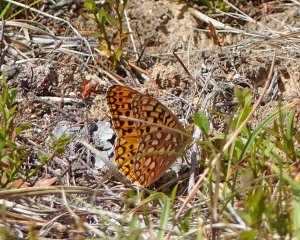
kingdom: Animalia
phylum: Arthropoda
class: Insecta
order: Lepidoptera
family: Nymphalidae
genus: Speyeria
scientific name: Speyeria zerene
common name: Zerene Fritillary
